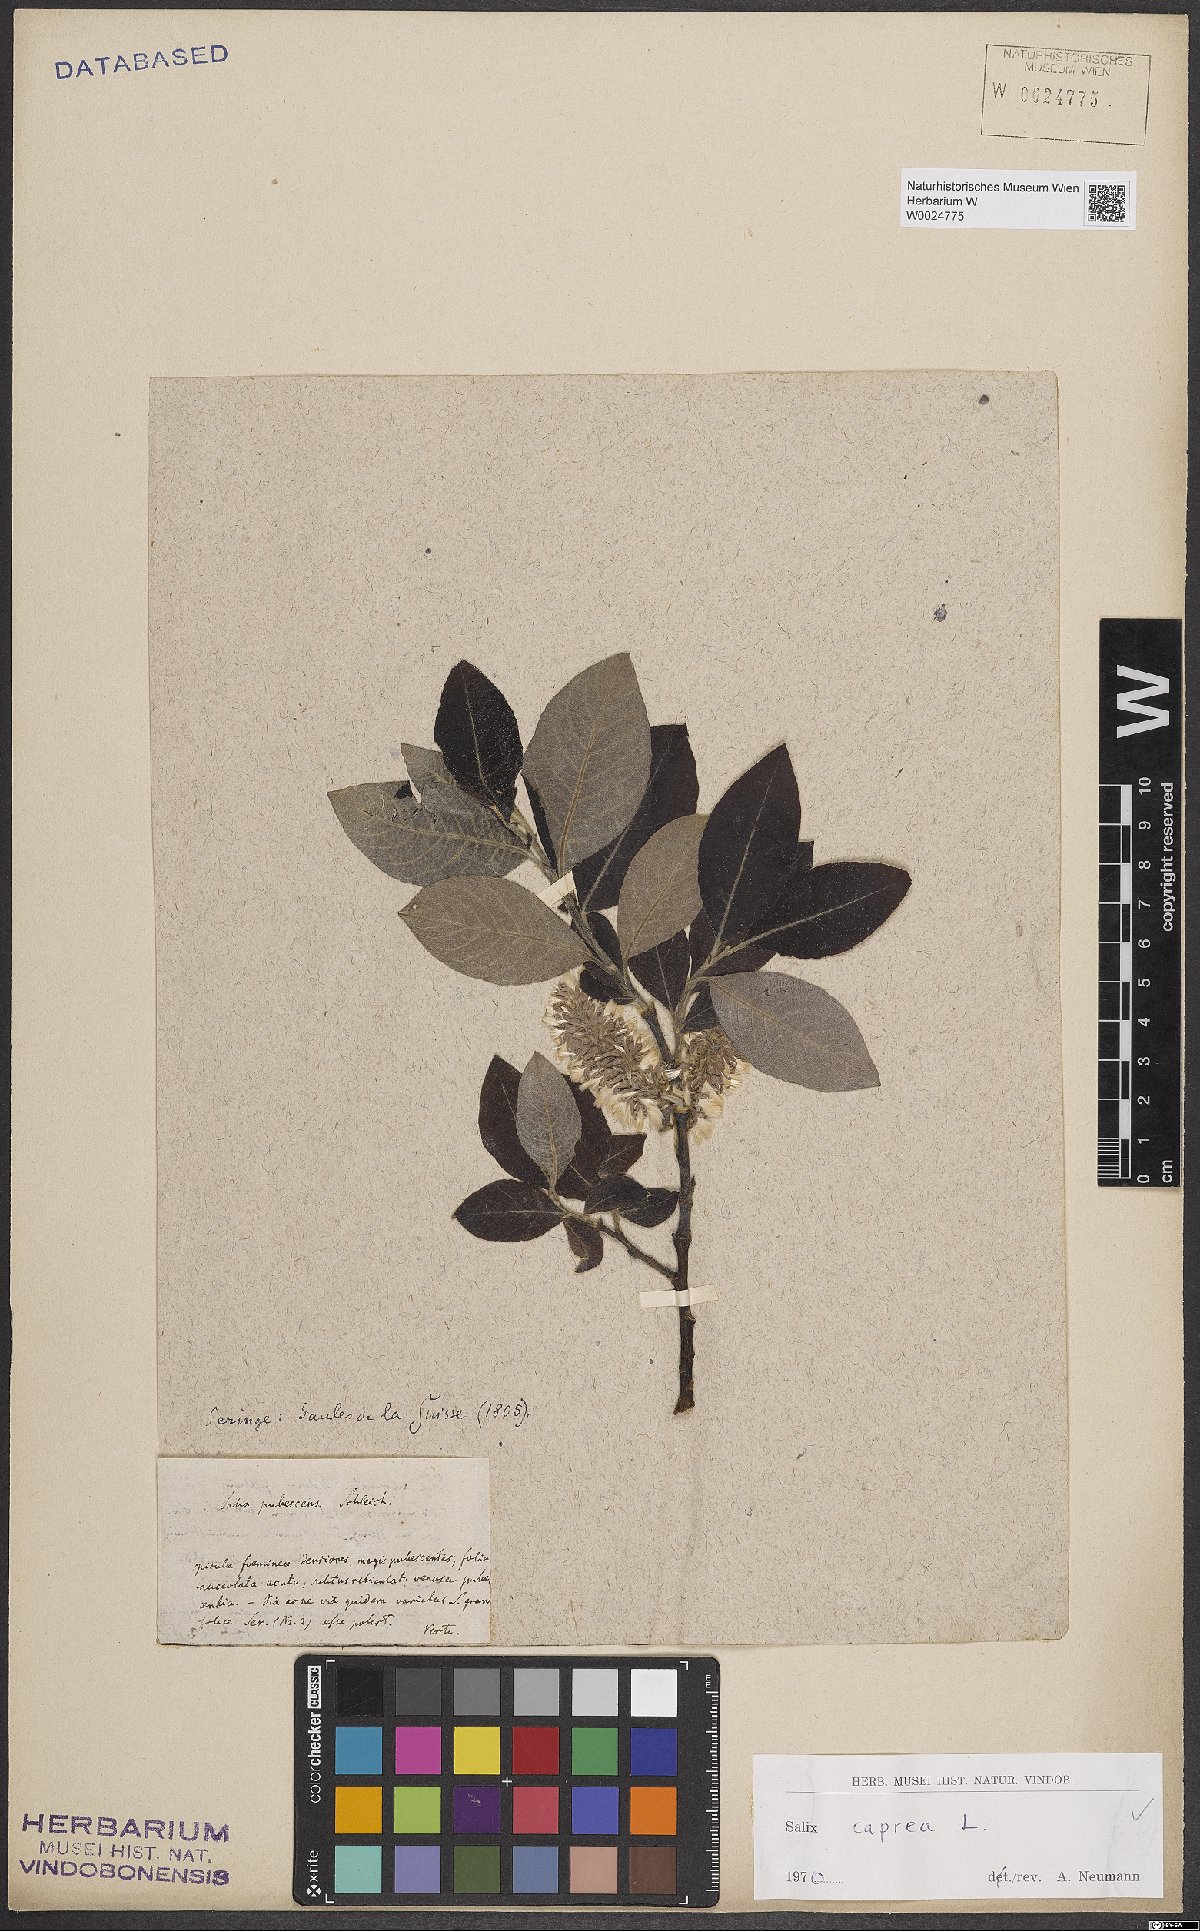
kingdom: Plantae
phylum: Tracheophyta
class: Magnoliopsida
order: Malpighiales
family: Salicaceae
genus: Salix
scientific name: Salix caprea
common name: Goat willow
